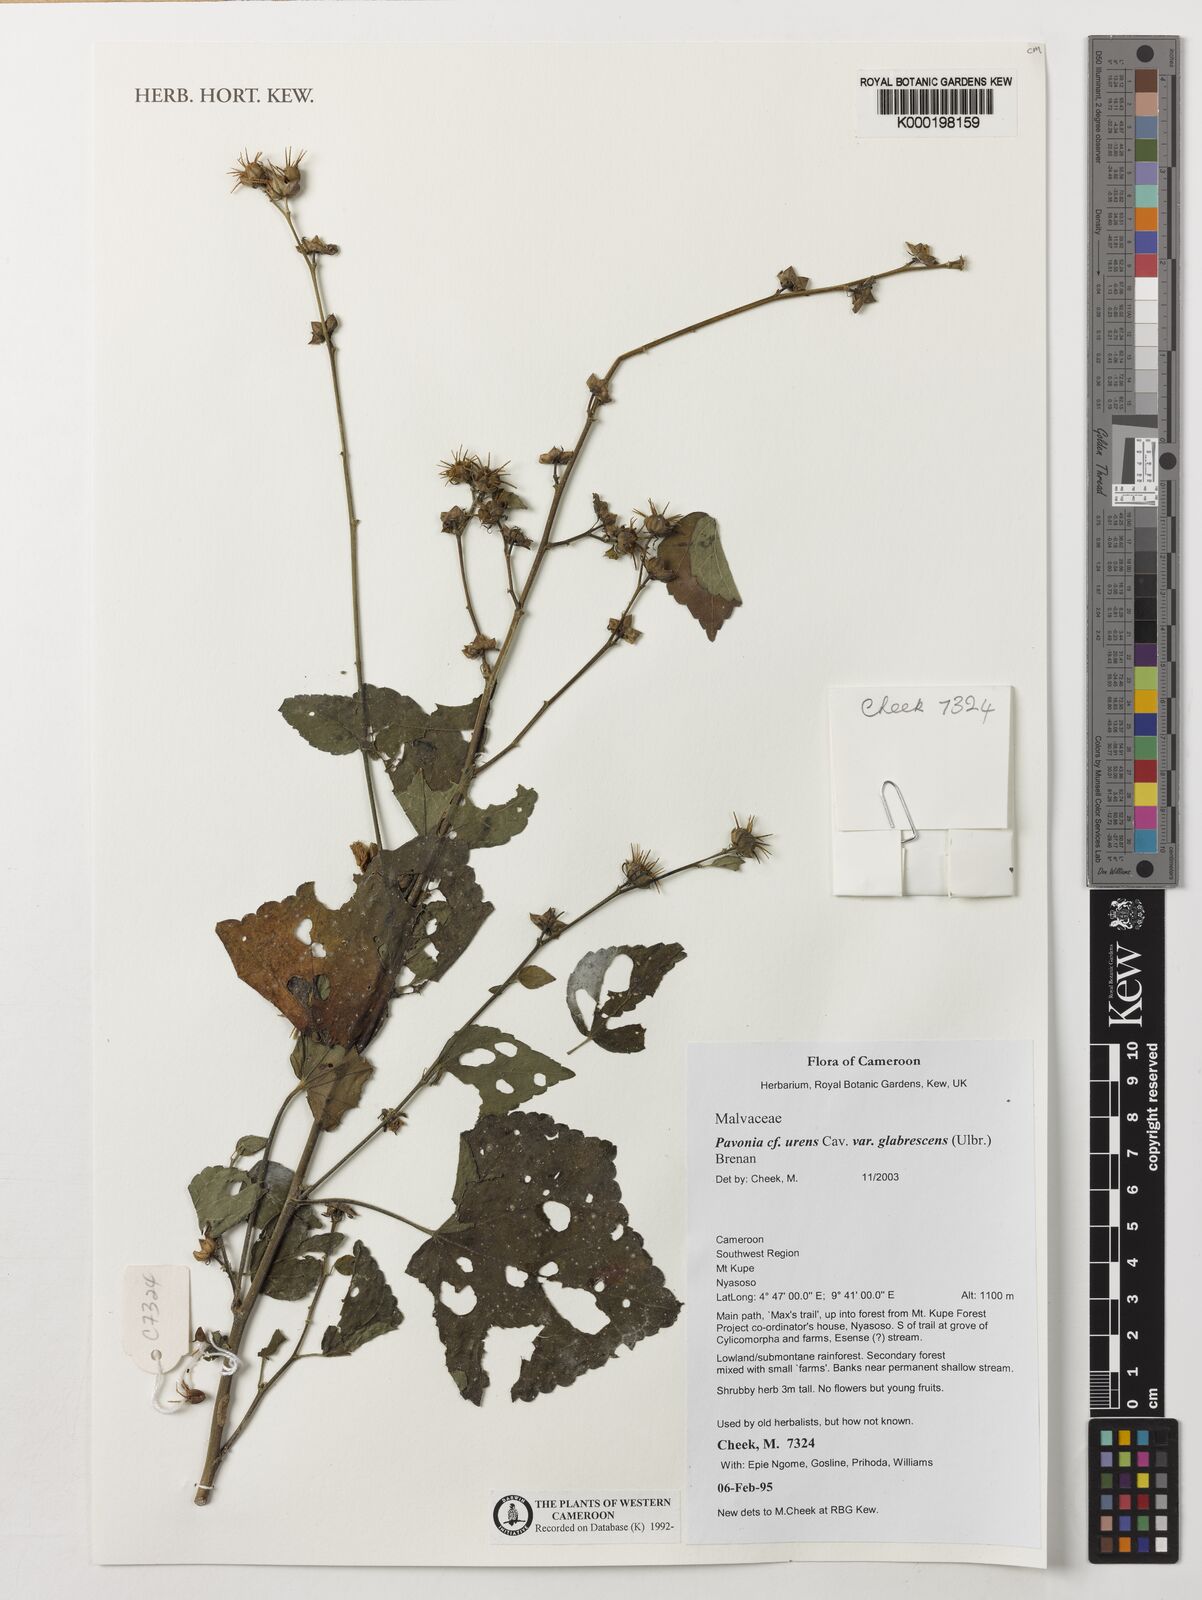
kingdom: Plantae
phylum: Tracheophyta
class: Magnoliopsida
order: Malvales
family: Malvaceae
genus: Pavonia
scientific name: Pavonia urens
